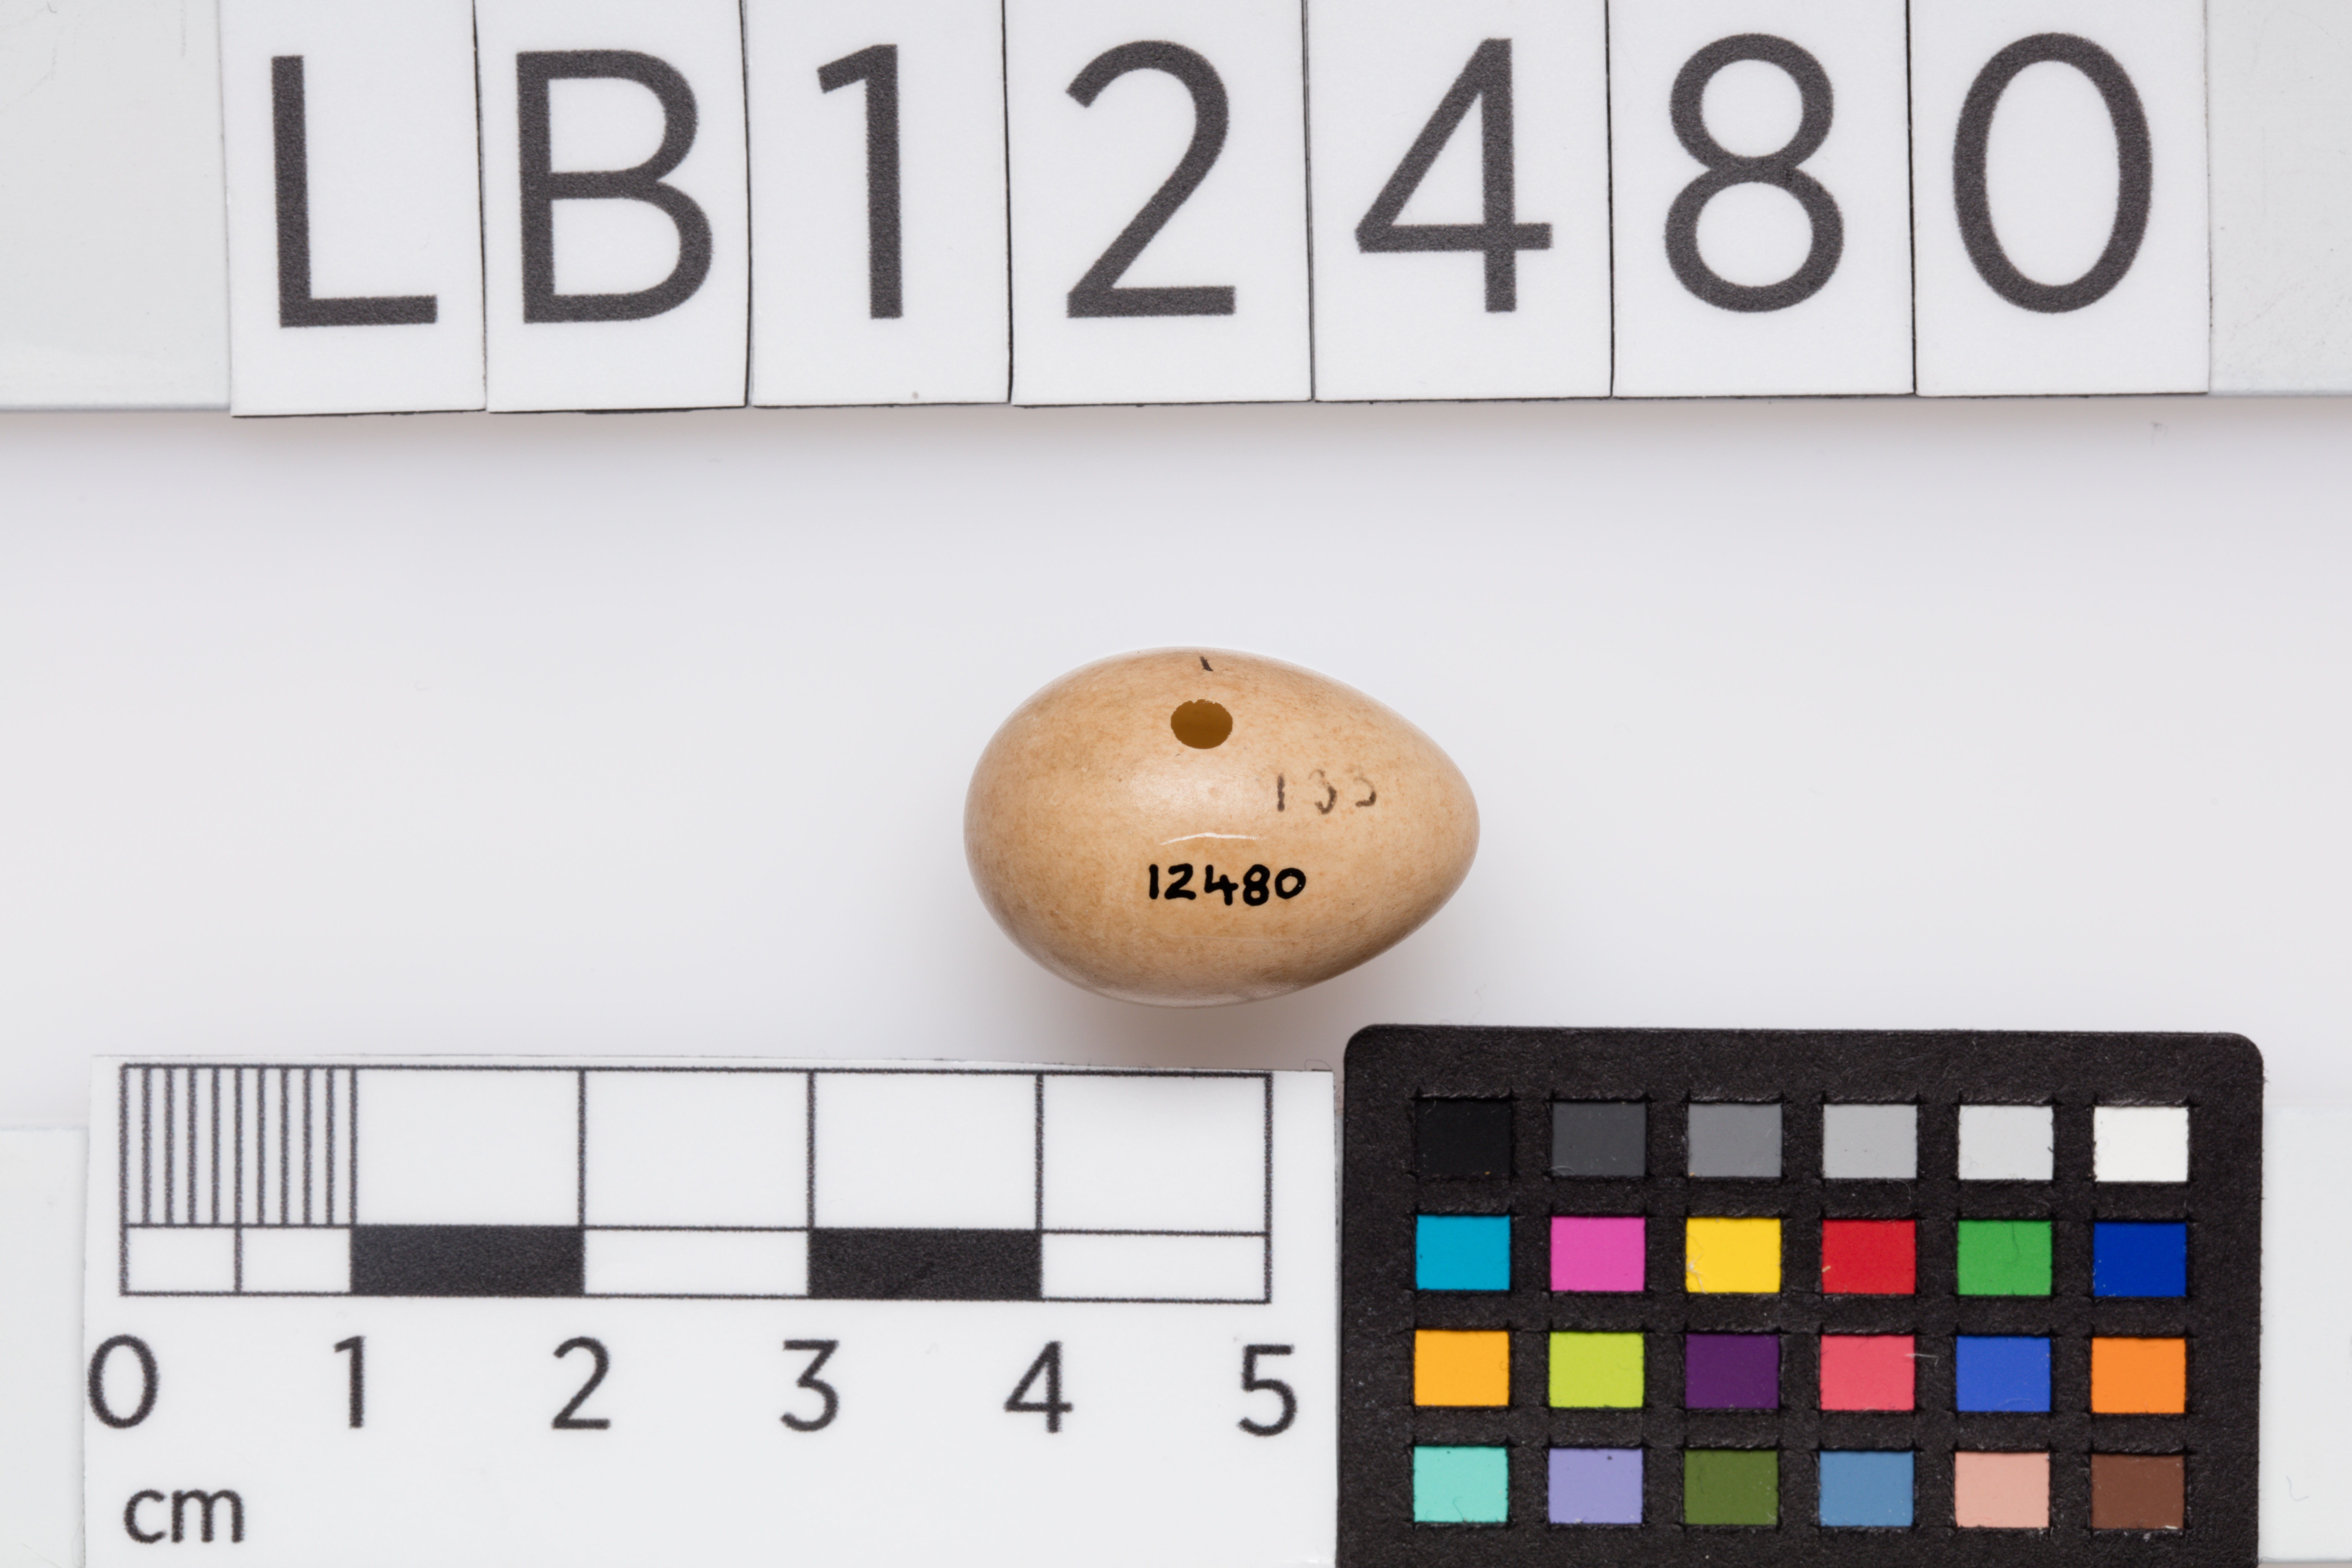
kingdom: Animalia
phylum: Chordata
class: Aves
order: Passeriformes
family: Muscicapidae
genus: Erithacus
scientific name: Erithacus rubecula
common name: European robin
